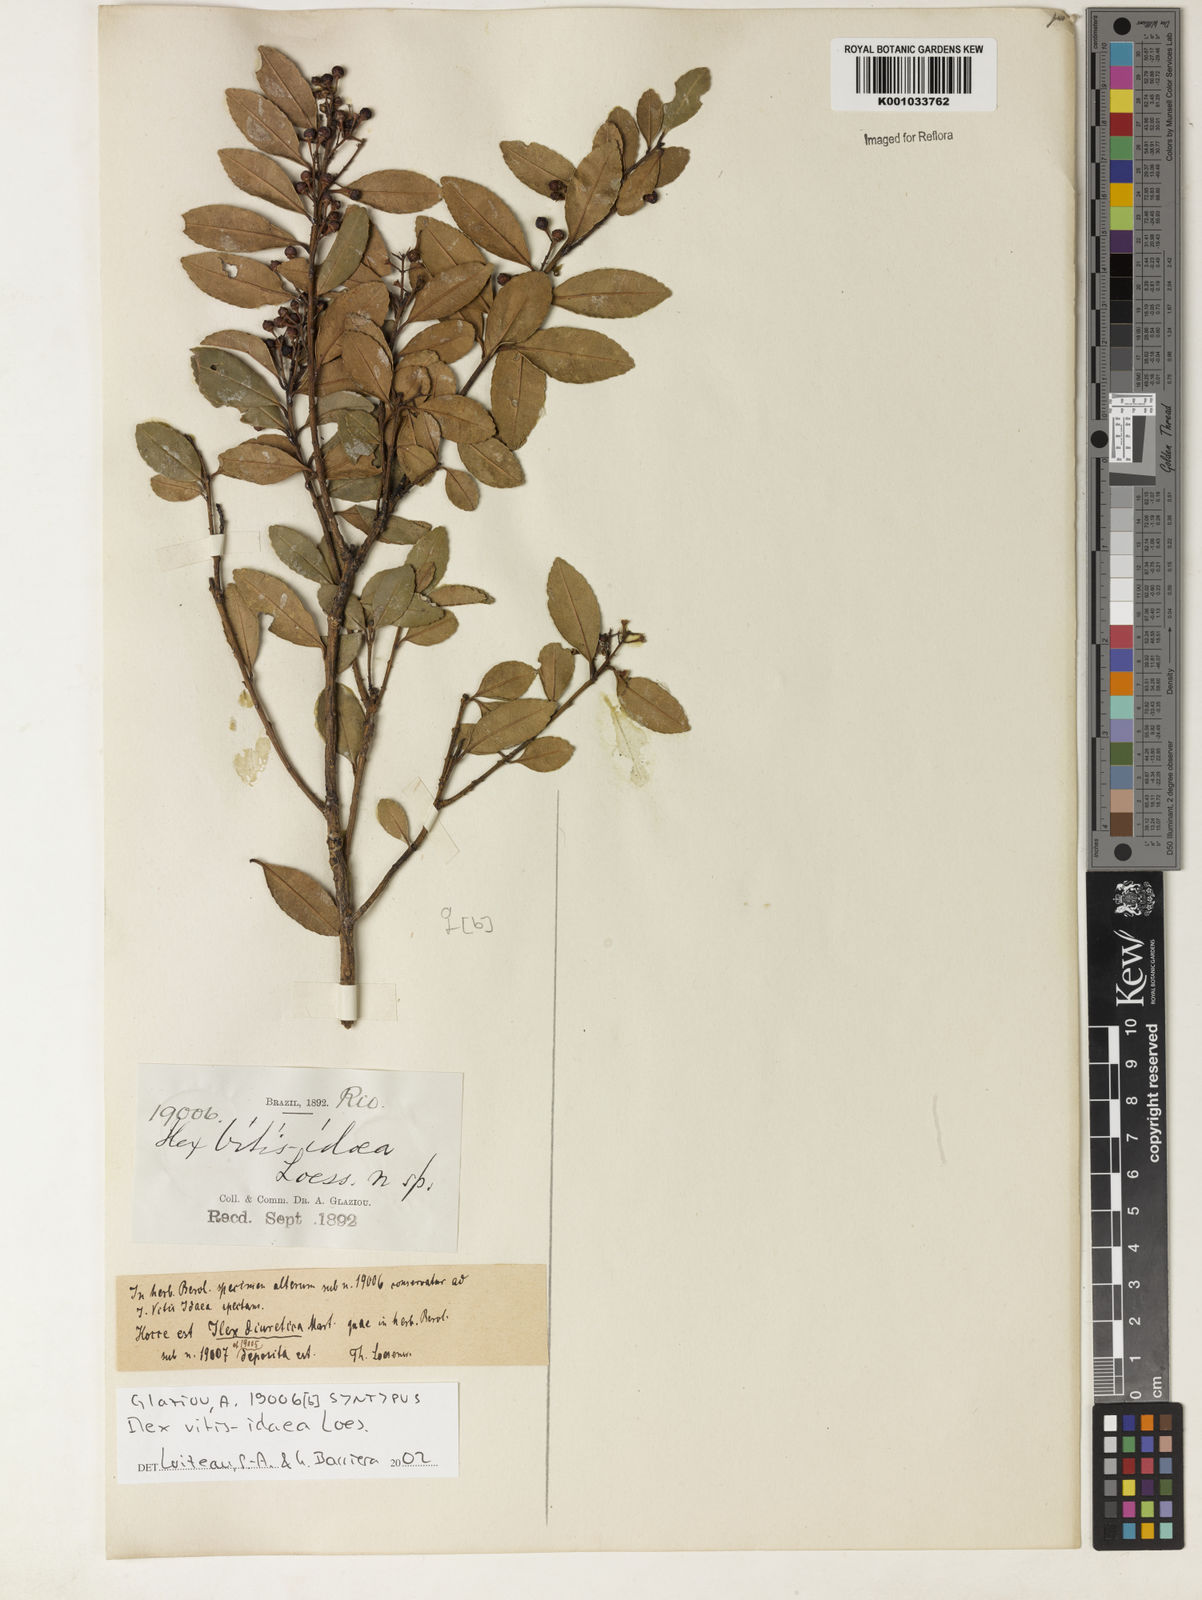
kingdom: Plantae
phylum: Tracheophyta
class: Magnoliopsida
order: Aquifoliales
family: Aquifoliaceae
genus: Ilex
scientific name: Ilex diuretica
